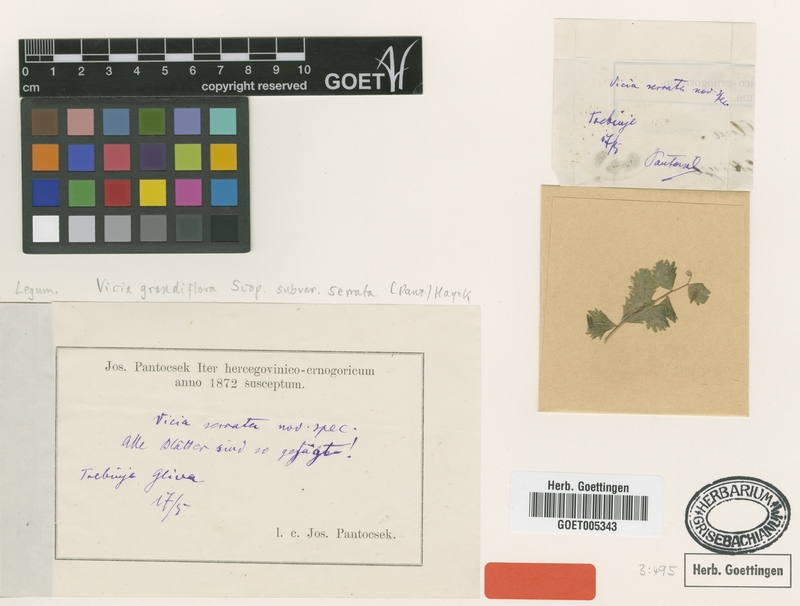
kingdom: Plantae
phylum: Tracheophyta
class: Magnoliopsida
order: Fabales
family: Fabaceae
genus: Vicia
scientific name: Vicia grandiflora
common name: Large yellow vetch
